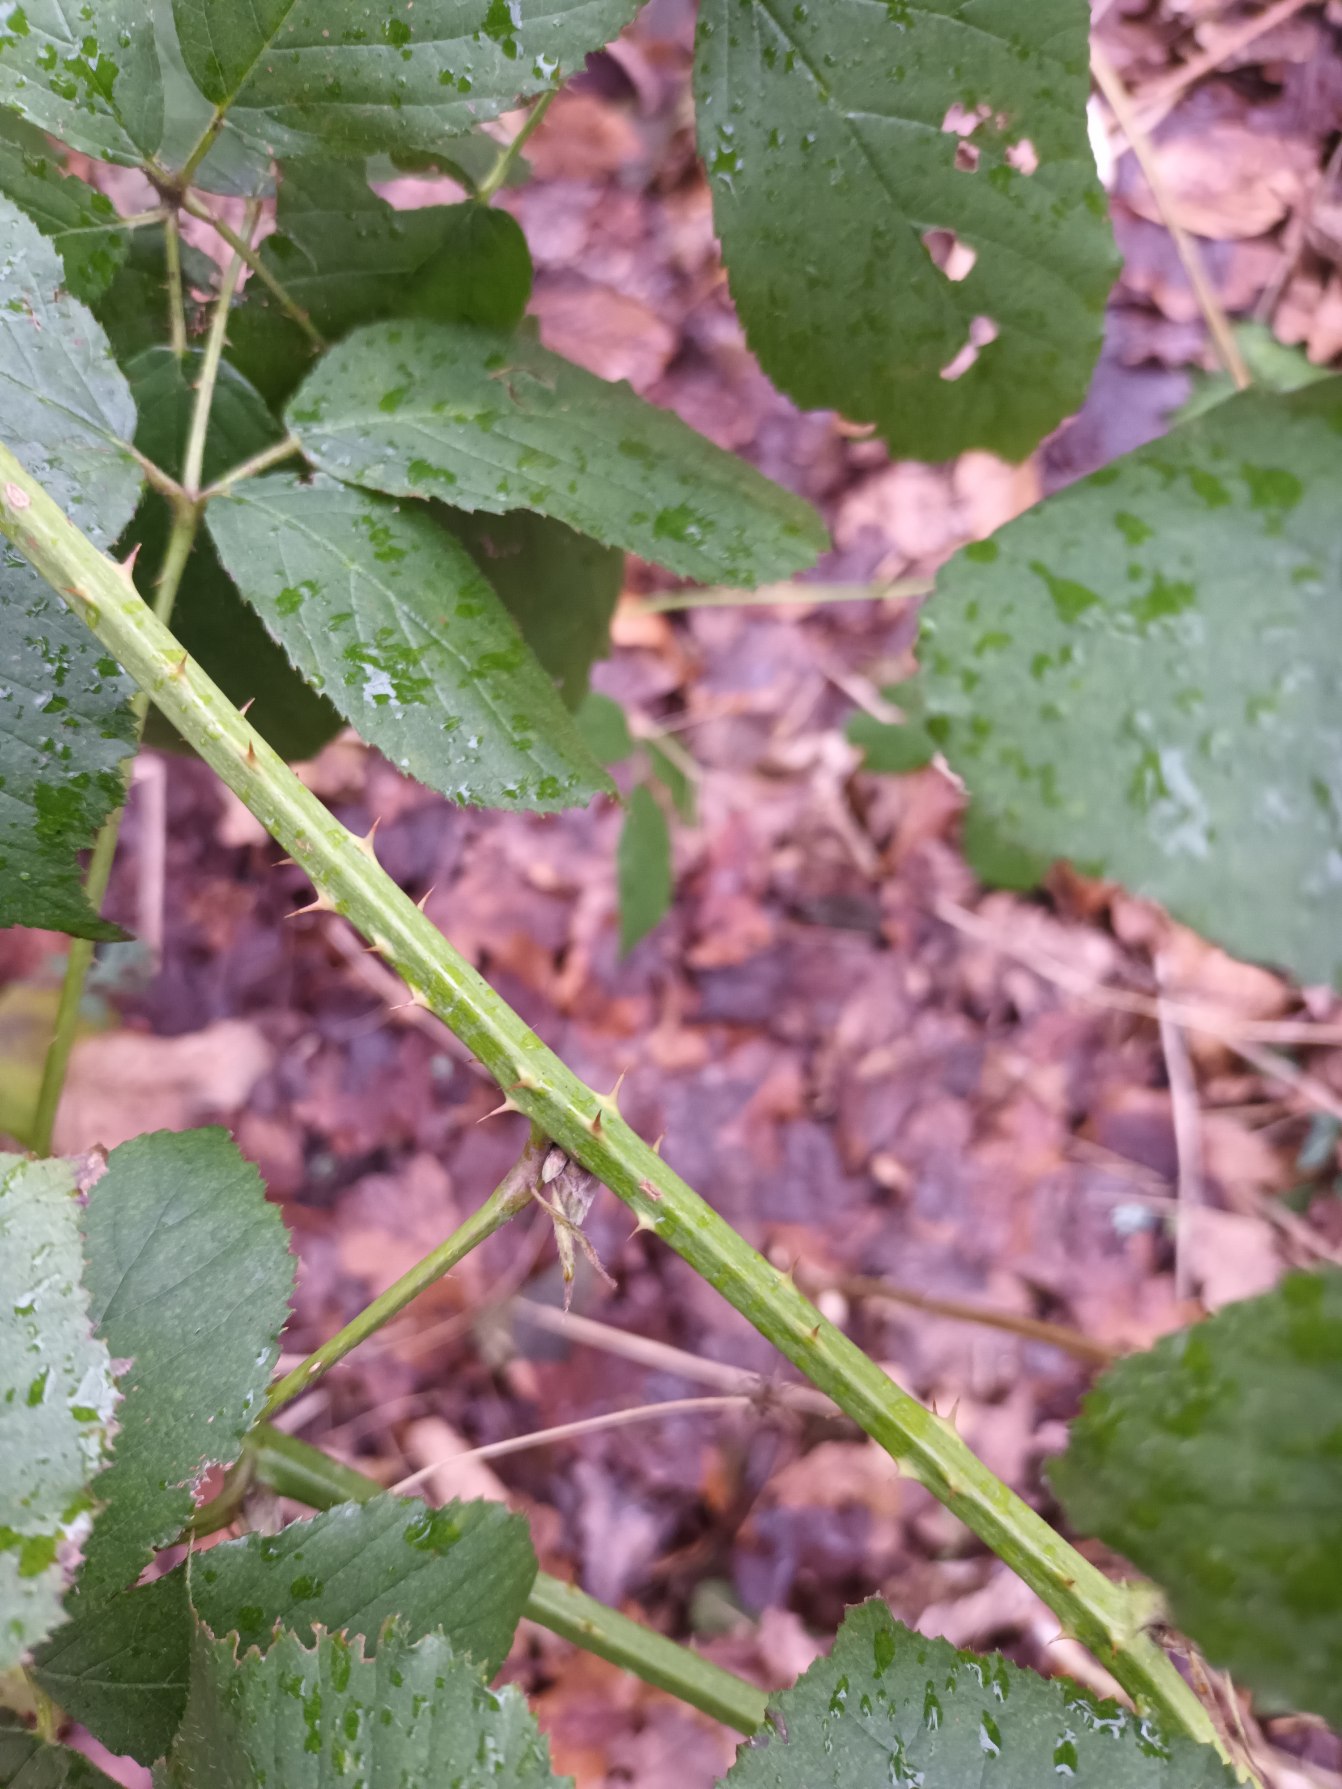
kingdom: Plantae
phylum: Tracheophyta
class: Magnoliopsida
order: Rosales
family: Rosaceae
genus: Rubus
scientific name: Rubus egregius
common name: Pragt-brombær
